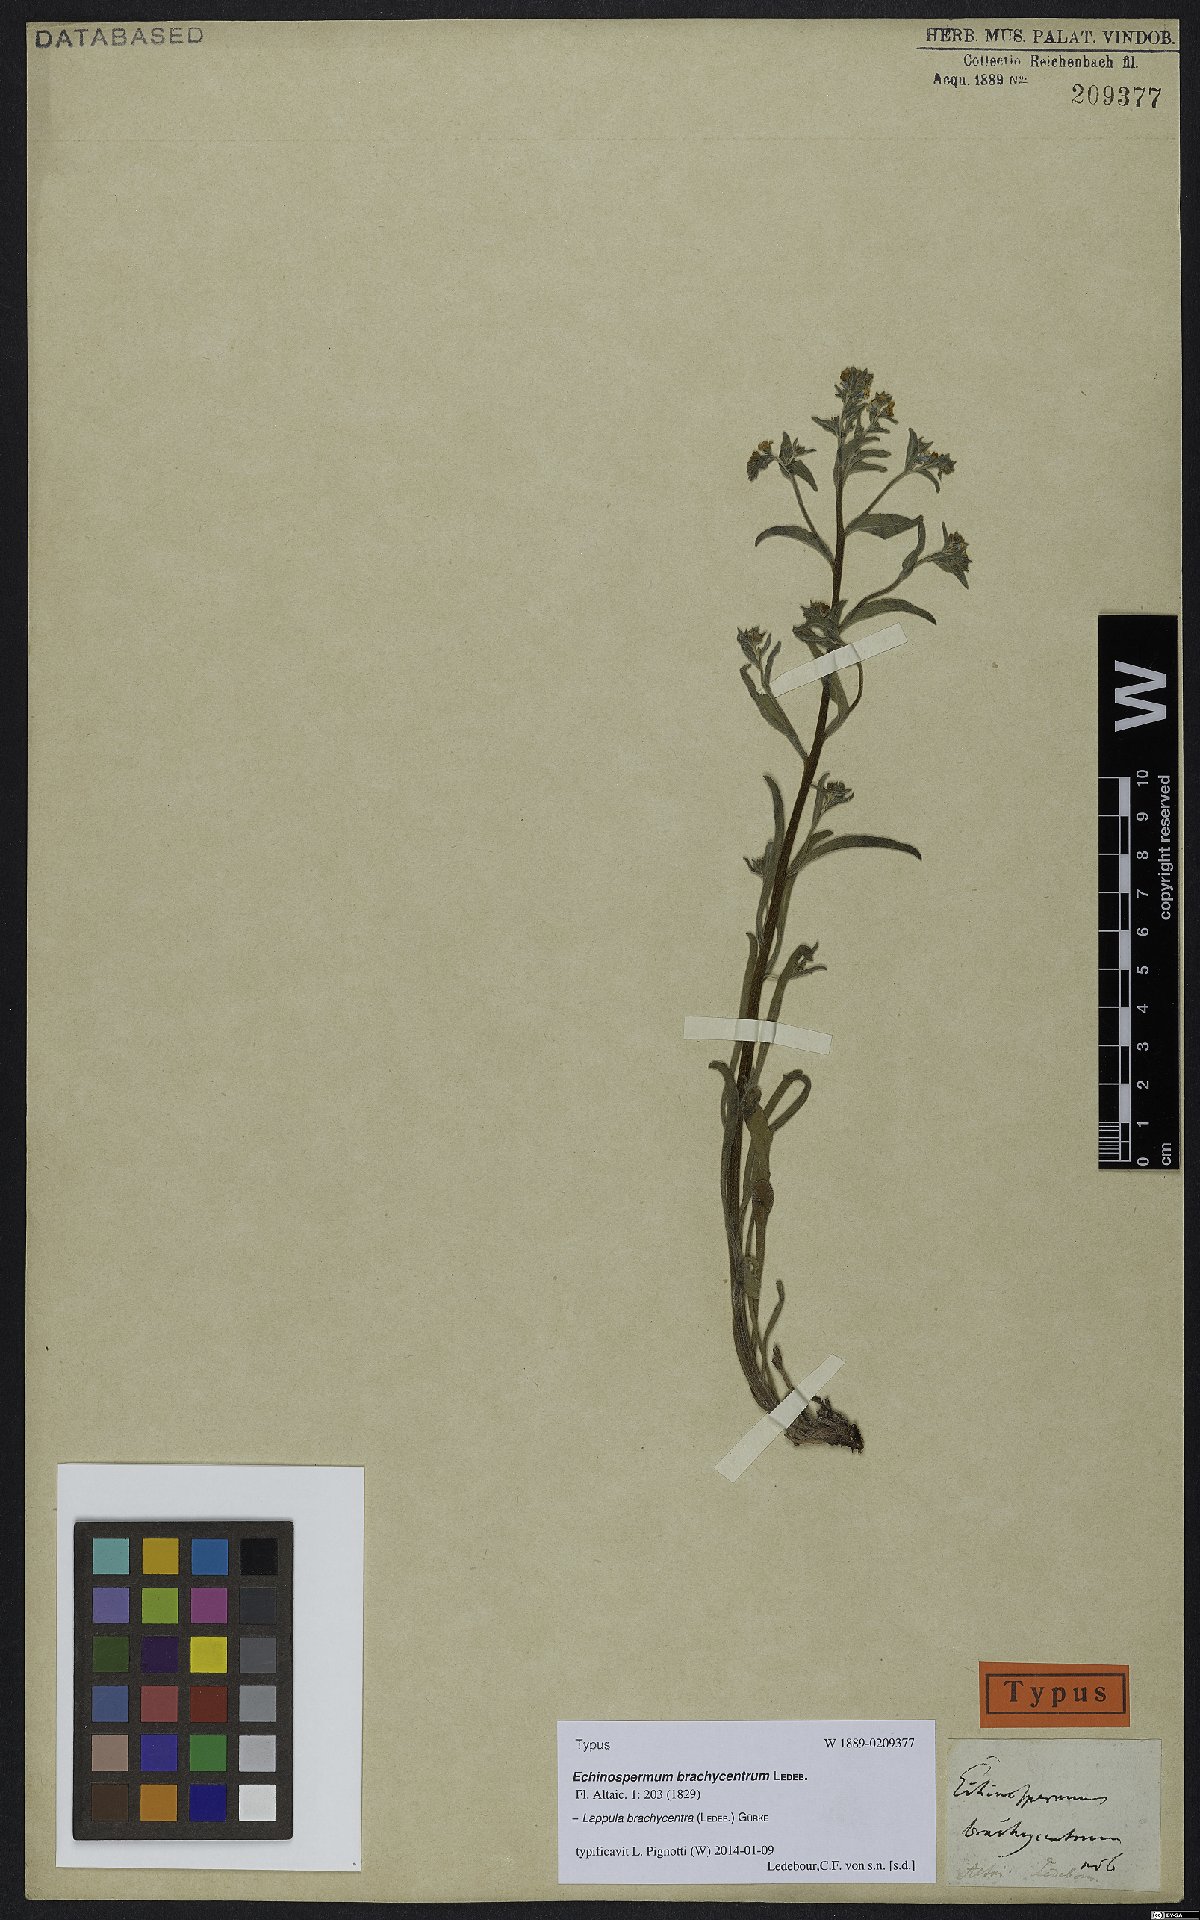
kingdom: Plantae
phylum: Tracheophyta
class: Magnoliopsida
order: Boraginales
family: Boraginaceae
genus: Lappula
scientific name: Lappula brachycentra
